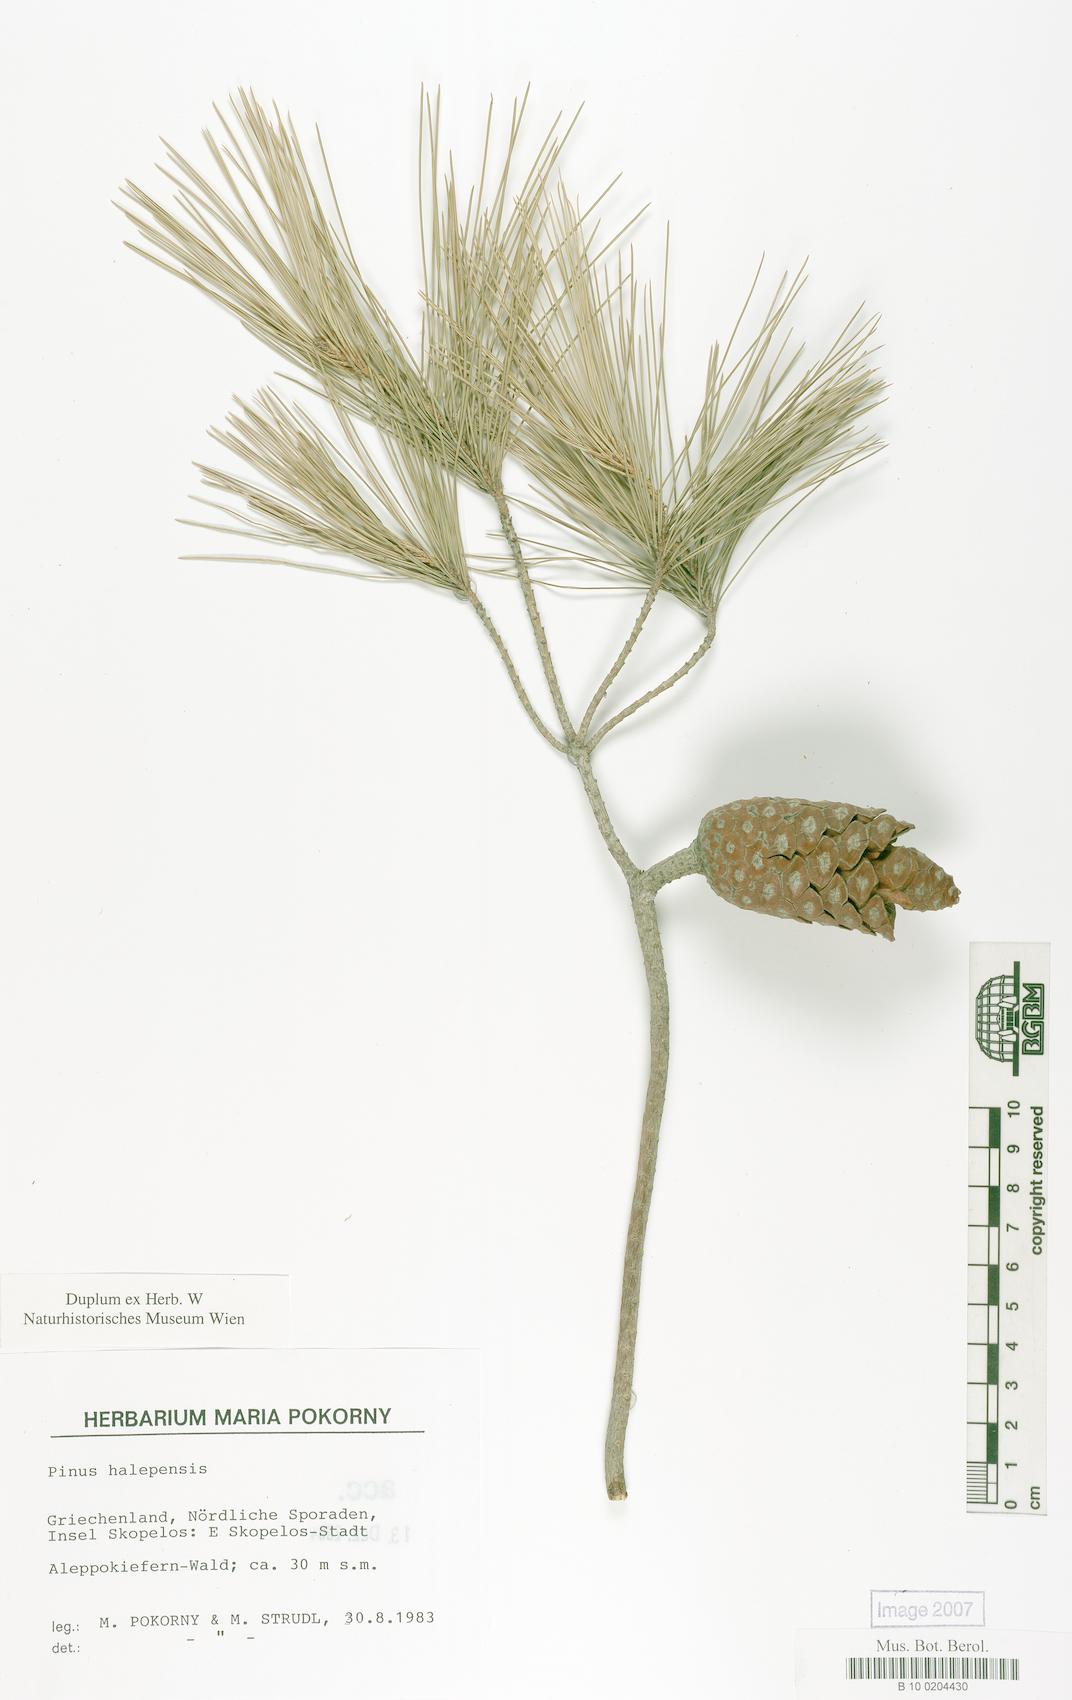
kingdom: Plantae
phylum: Tracheophyta
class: Pinopsida
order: Pinales
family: Pinaceae
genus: Pinus
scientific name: Pinus halepensis
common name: Aleppo pine
